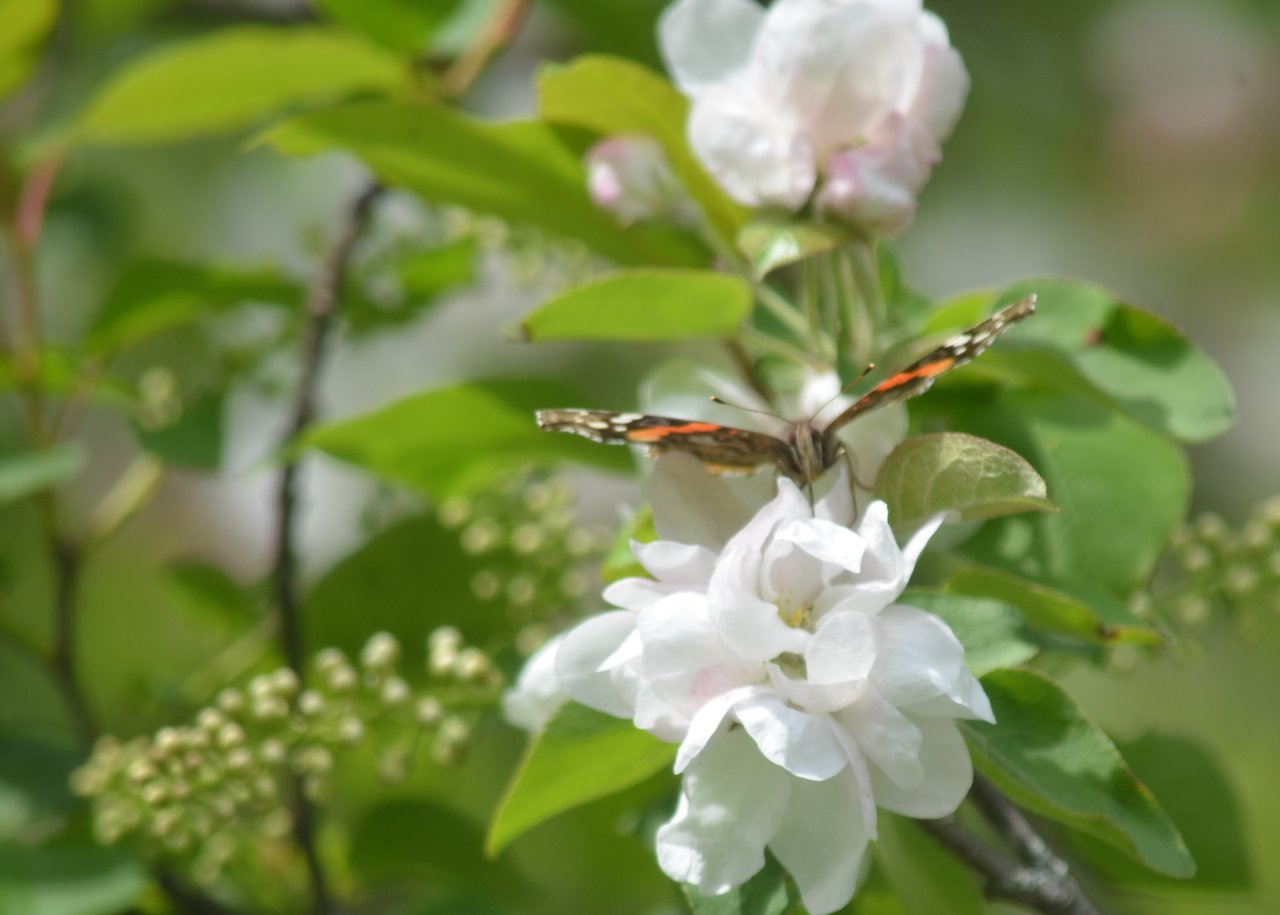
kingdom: Animalia
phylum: Arthropoda
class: Insecta
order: Lepidoptera
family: Nymphalidae
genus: Vanessa
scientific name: Vanessa atalanta
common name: Red Admiral
